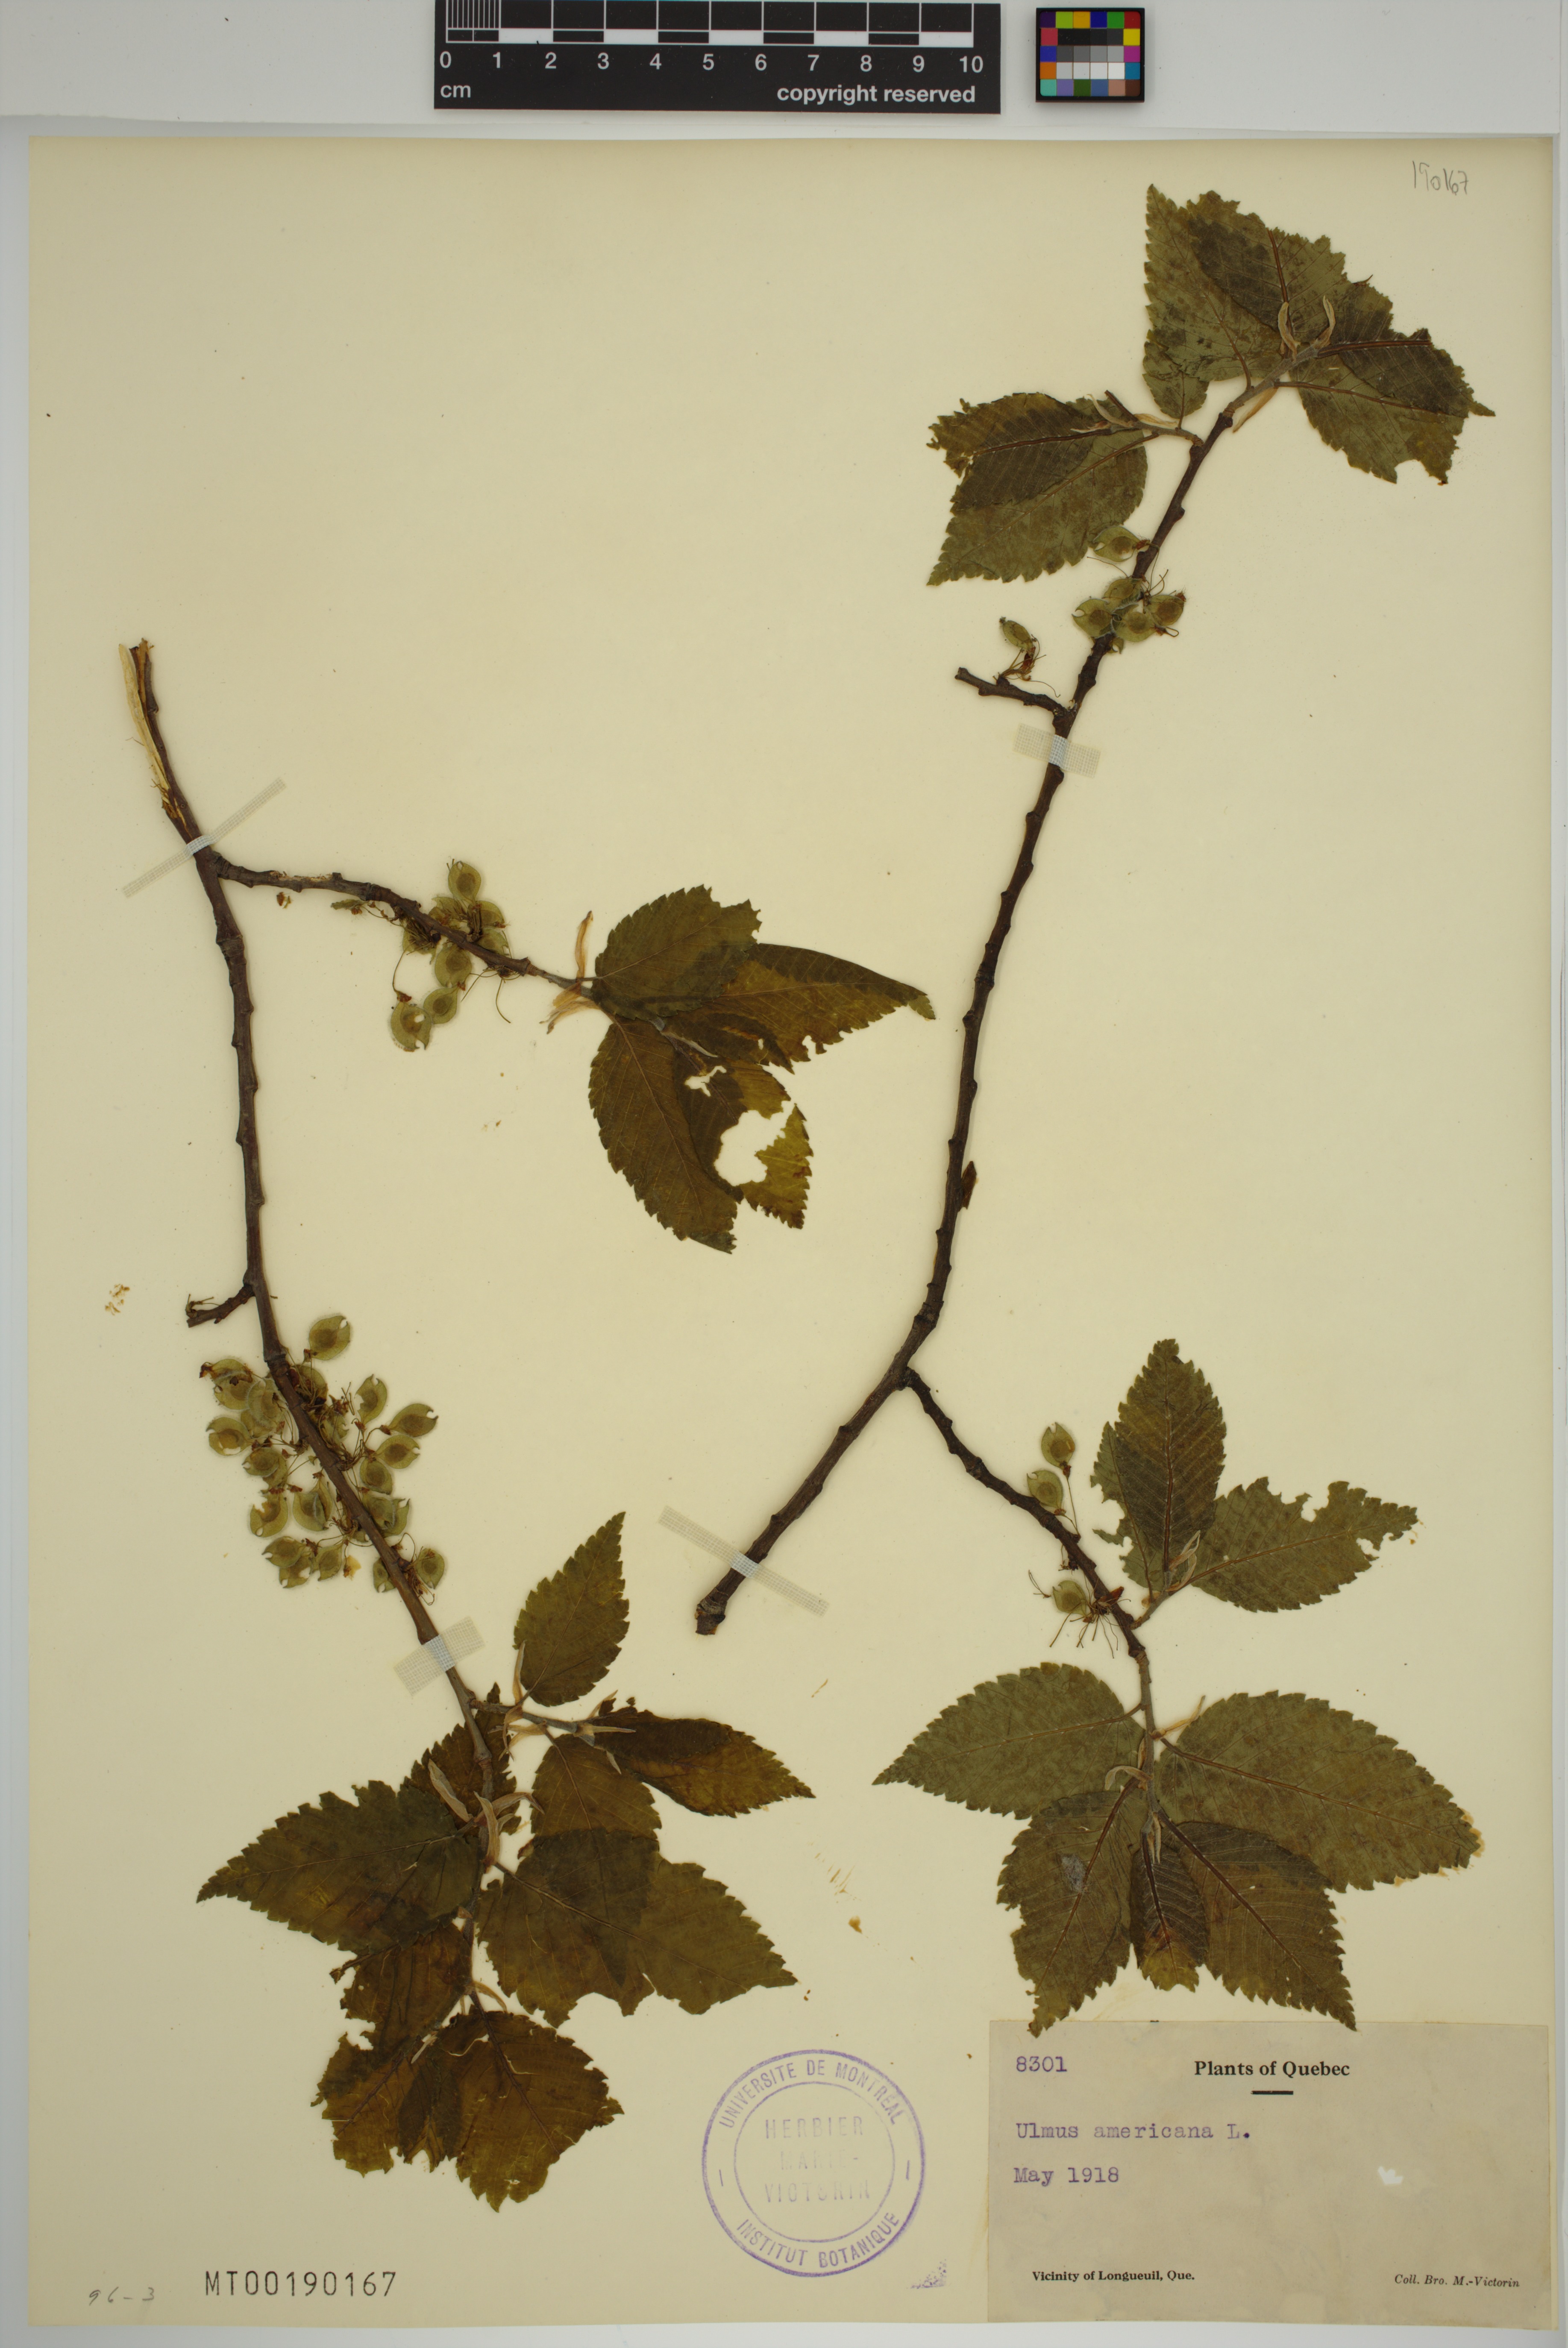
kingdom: Plantae
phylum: Tracheophyta
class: Magnoliopsida
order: Rosales
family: Ulmaceae
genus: Ulmus
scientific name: Ulmus americana
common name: American elm
